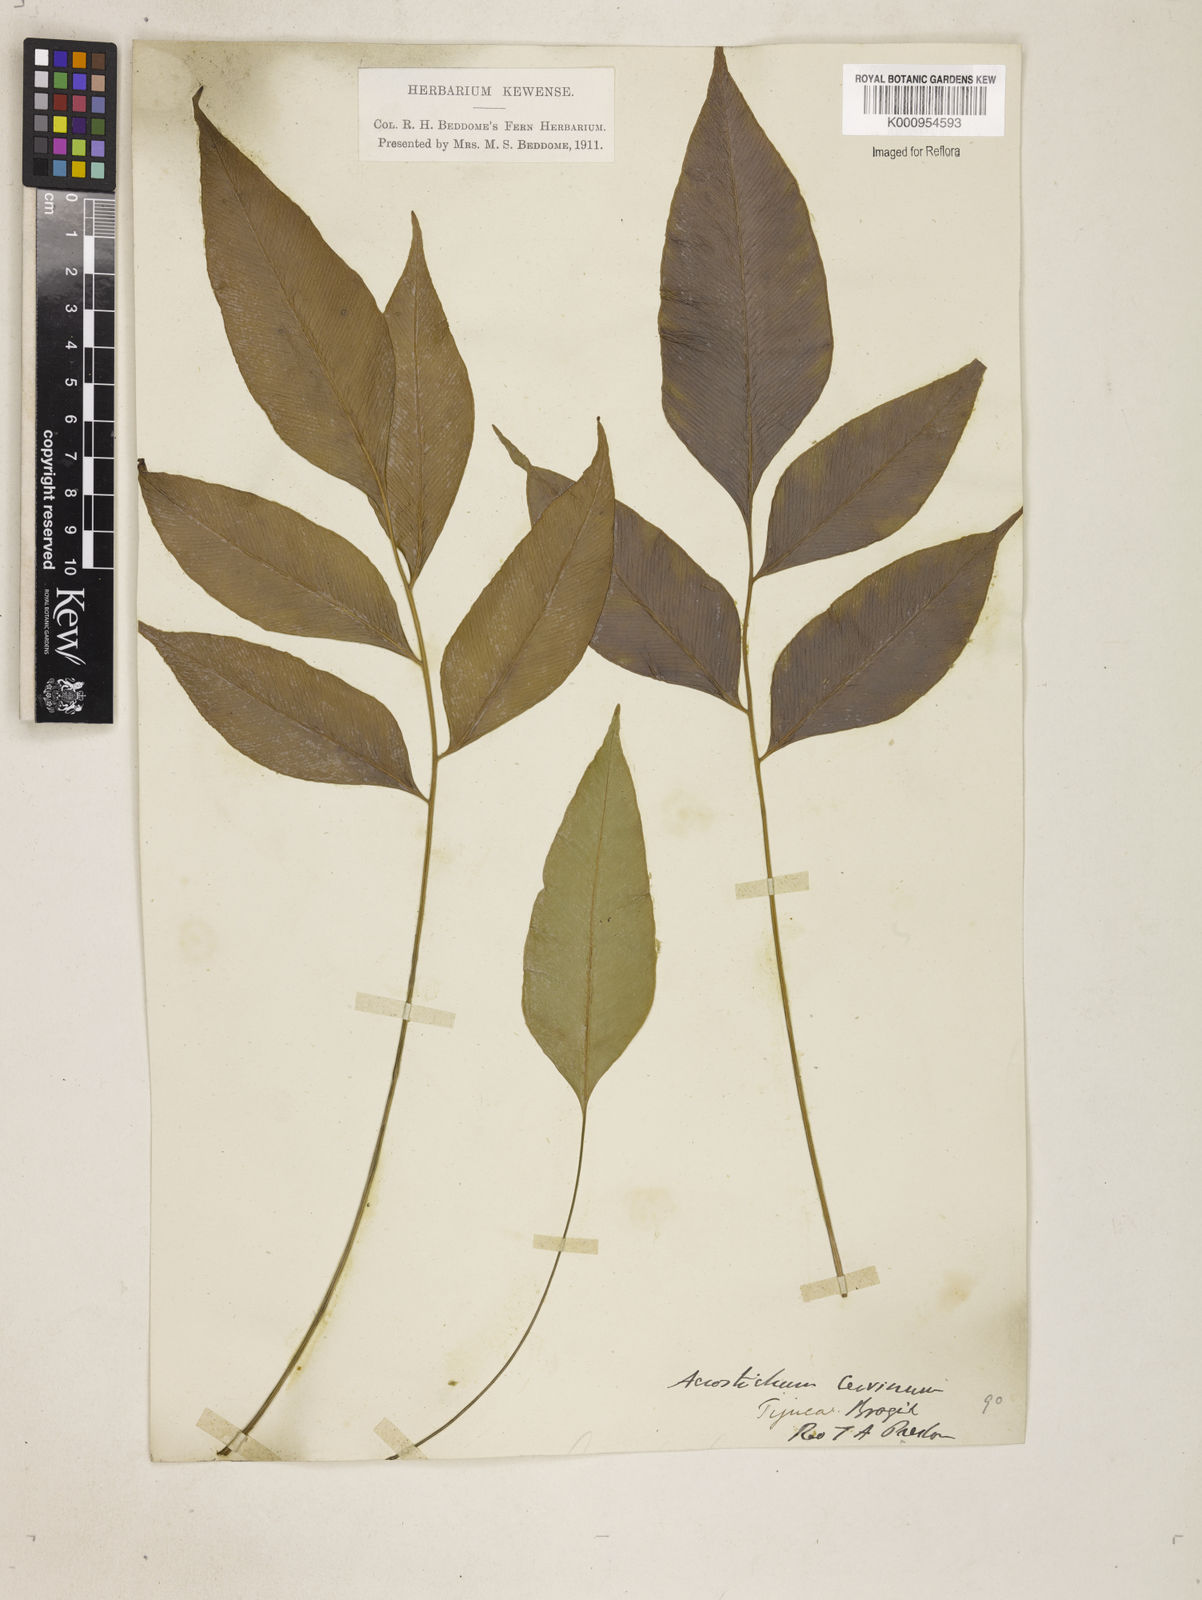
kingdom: Plantae
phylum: Tracheophyta
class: Polypodiopsida
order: Polypodiales
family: Dryopteridaceae
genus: Olfersia
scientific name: Olfersia cervina
